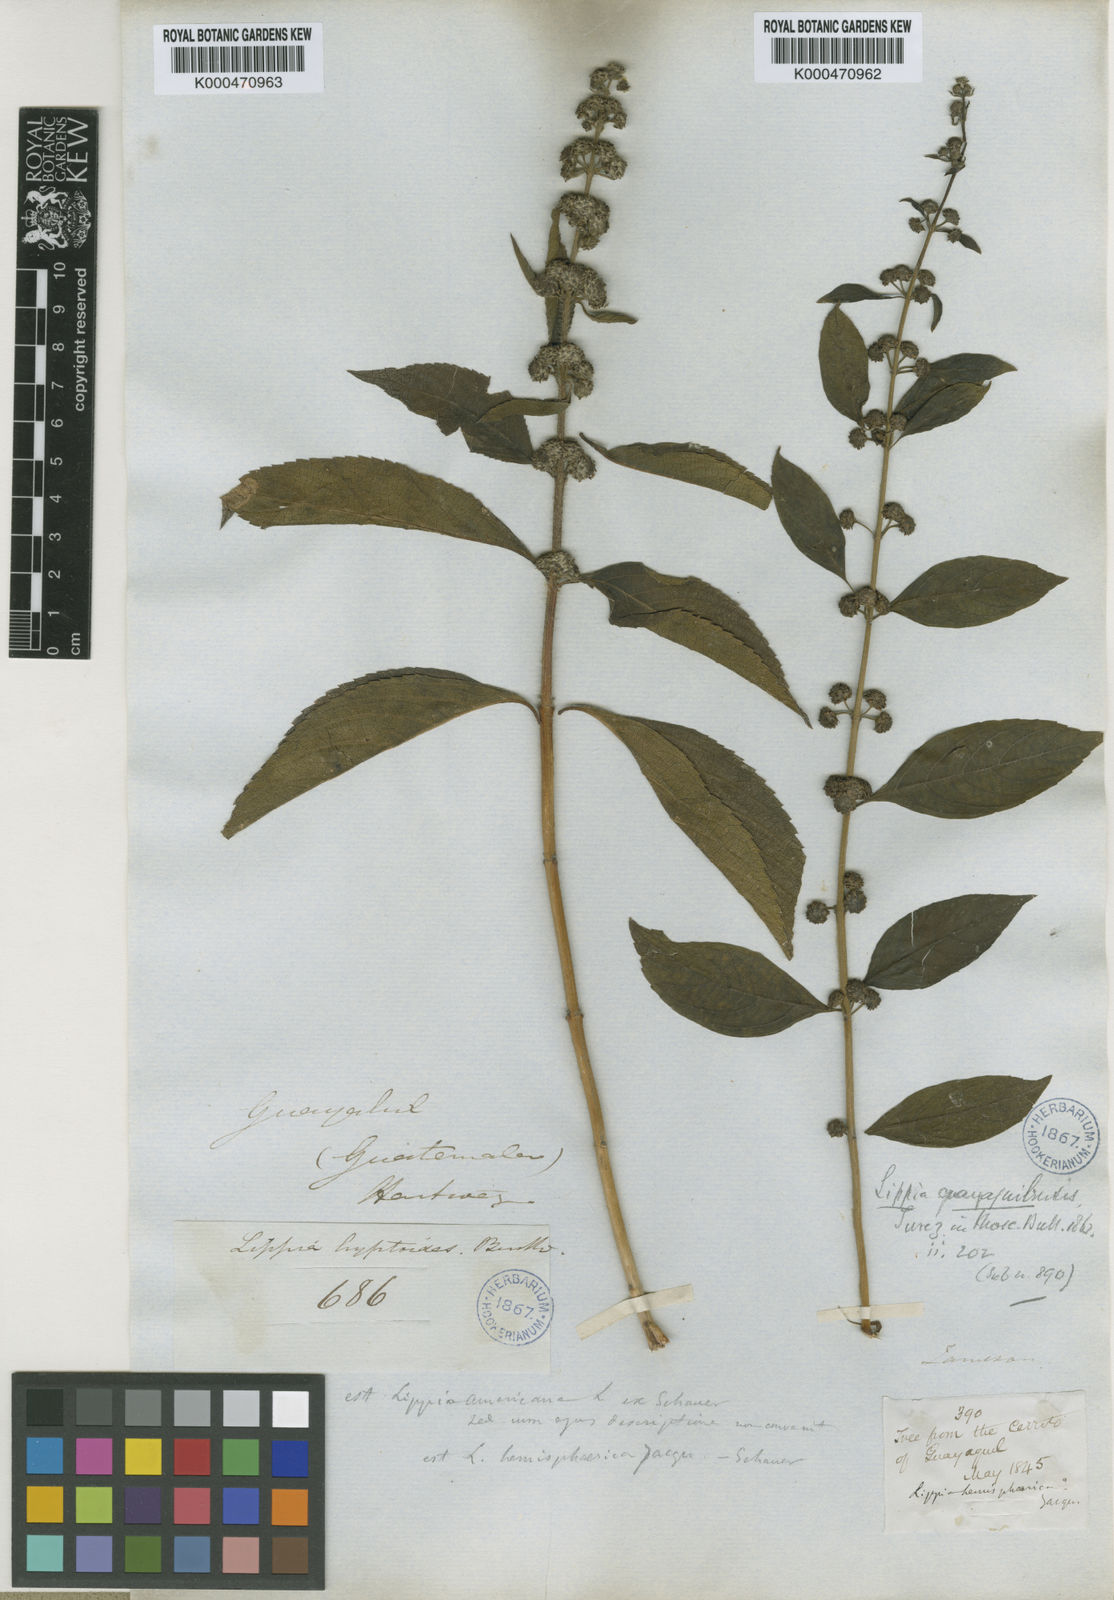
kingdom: Plantae
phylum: Tracheophyta
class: Magnoliopsida
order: Lamiales
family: Verbenaceae
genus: Lippia
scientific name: Lippia americana
